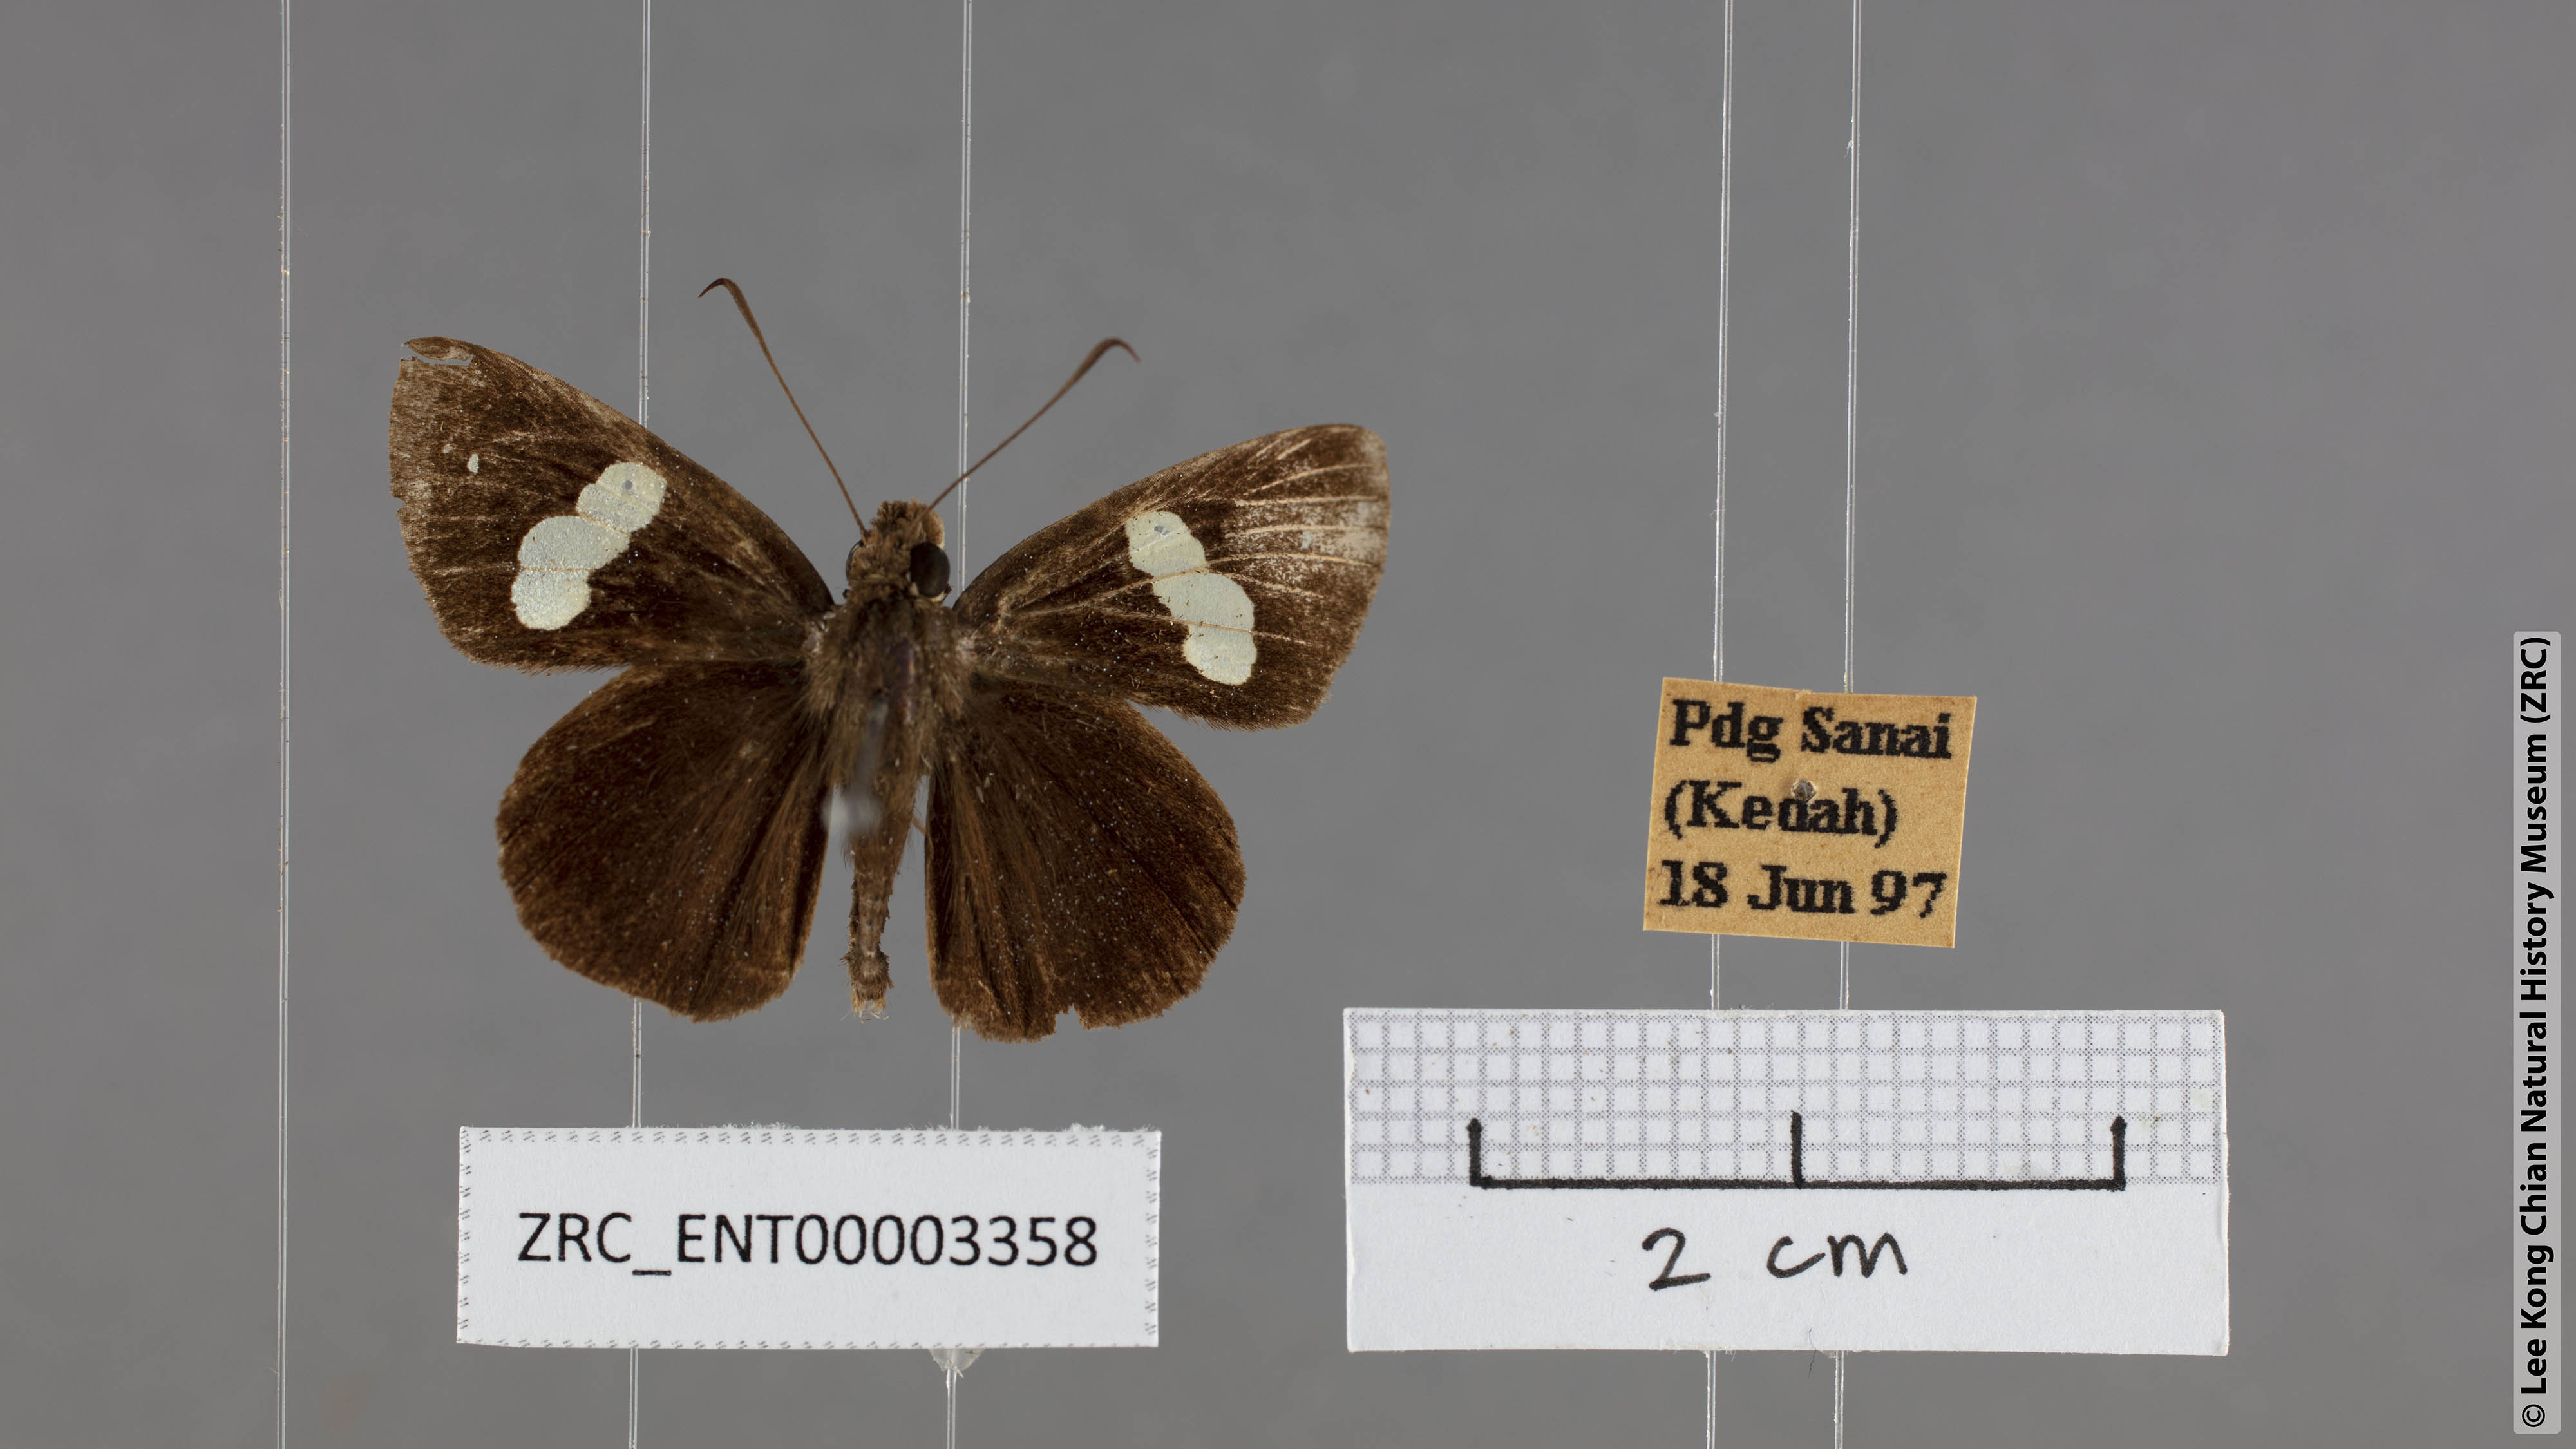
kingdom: Animalia
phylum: Arthropoda
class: Insecta
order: Lepidoptera
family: Hesperiidae
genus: Notocrypta
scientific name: Notocrypta paralysos
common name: Common banded demon
